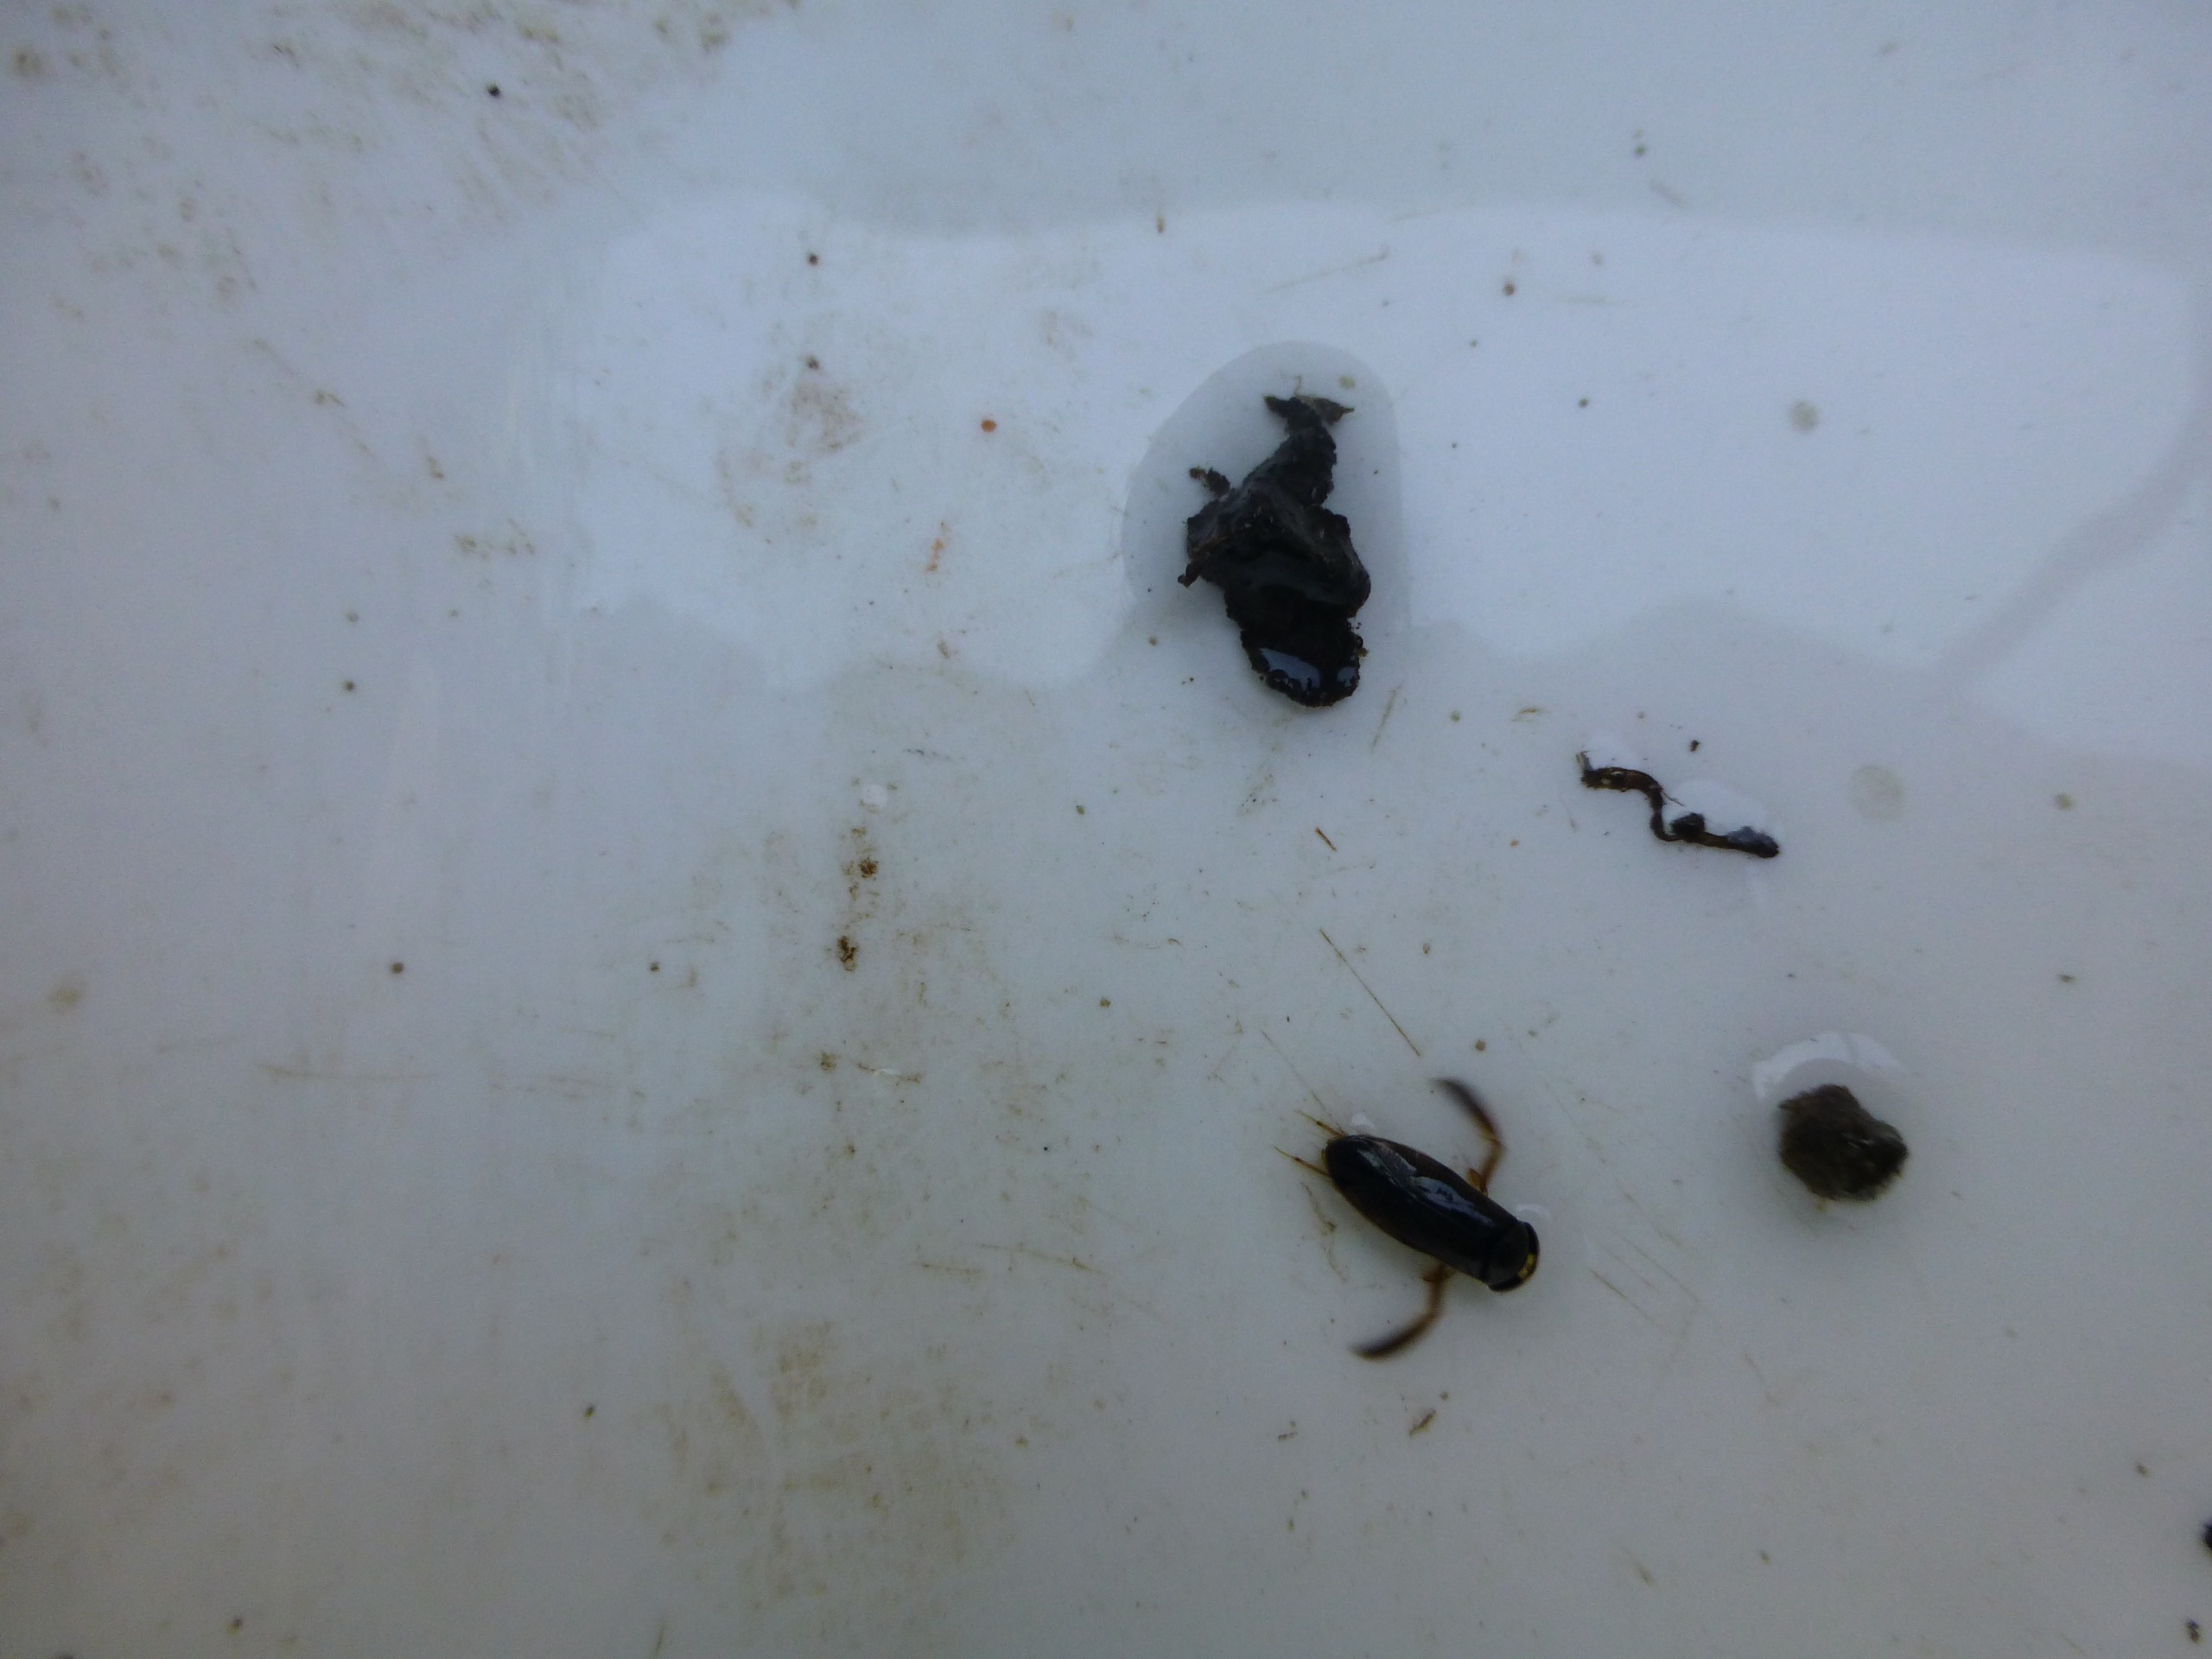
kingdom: Animalia
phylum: Chordata
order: Gasterosteiformes
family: Gasterosteidae
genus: Gasterosteus
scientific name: Gasterosteus aculeatus
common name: Trepigget hundestejle
